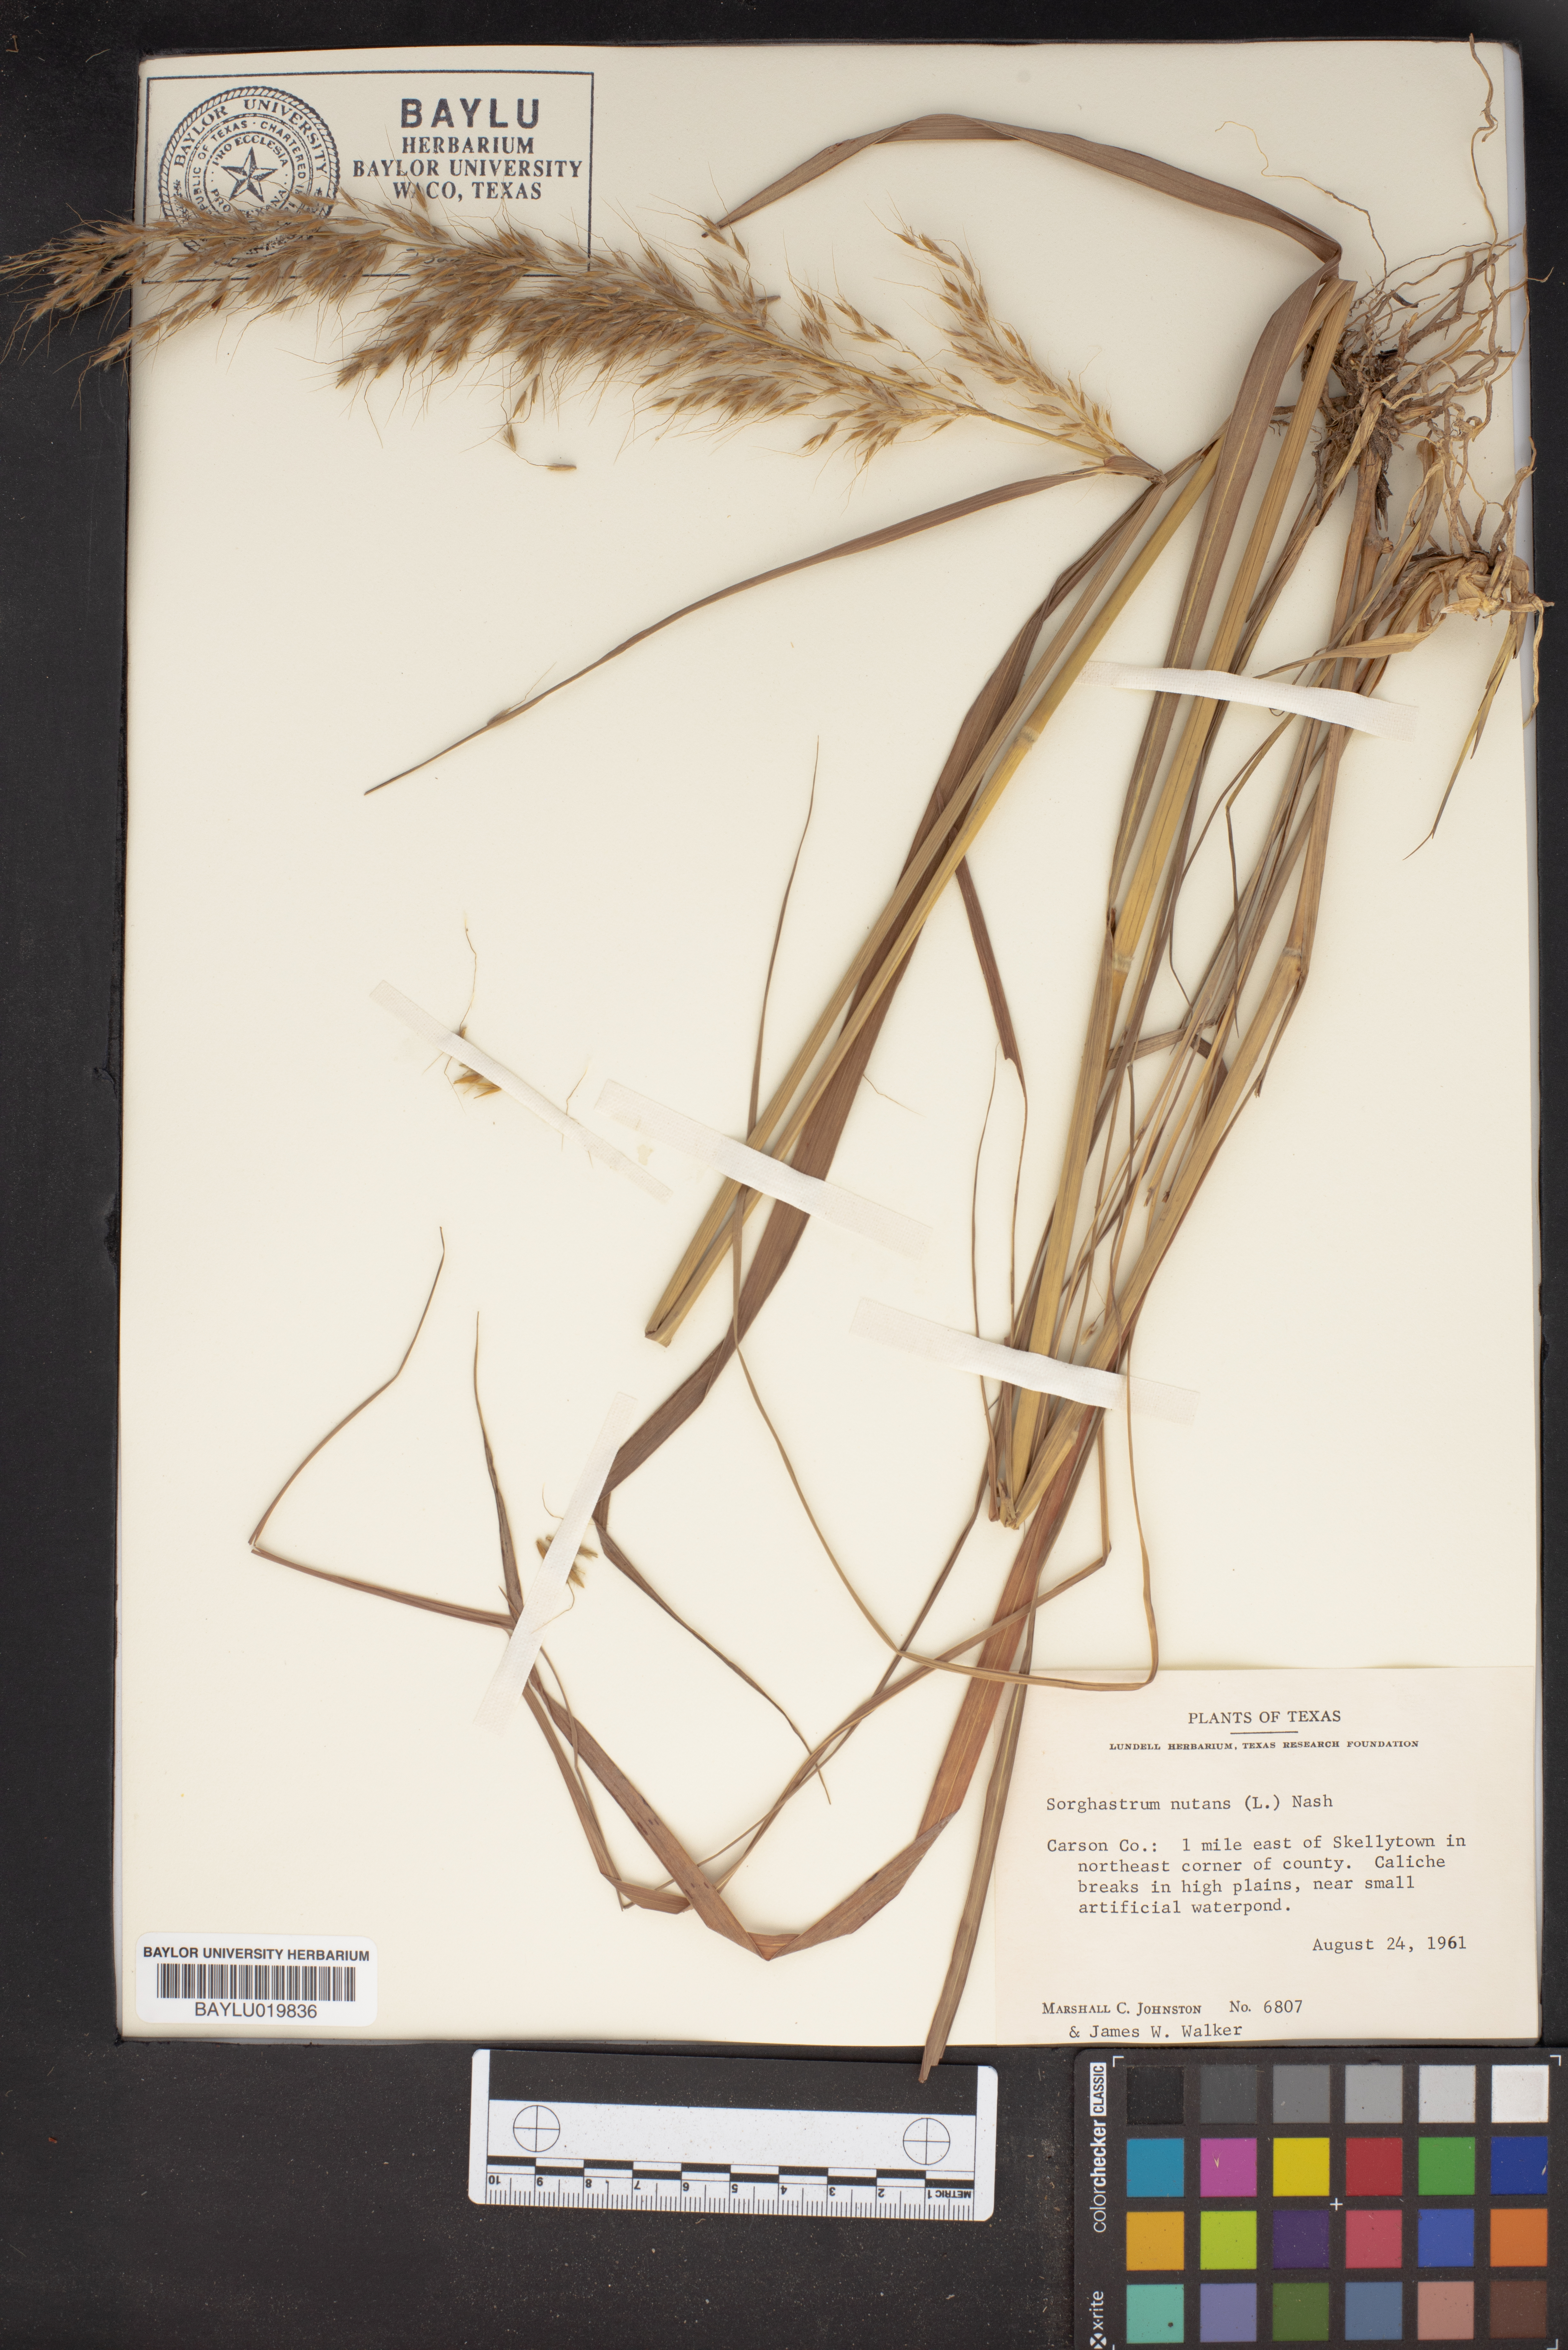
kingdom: Plantae
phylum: Tracheophyta
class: Liliopsida
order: Poales
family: Poaceae
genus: Sorghastrum
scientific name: Sorghastrum nutans
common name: Indian grass
